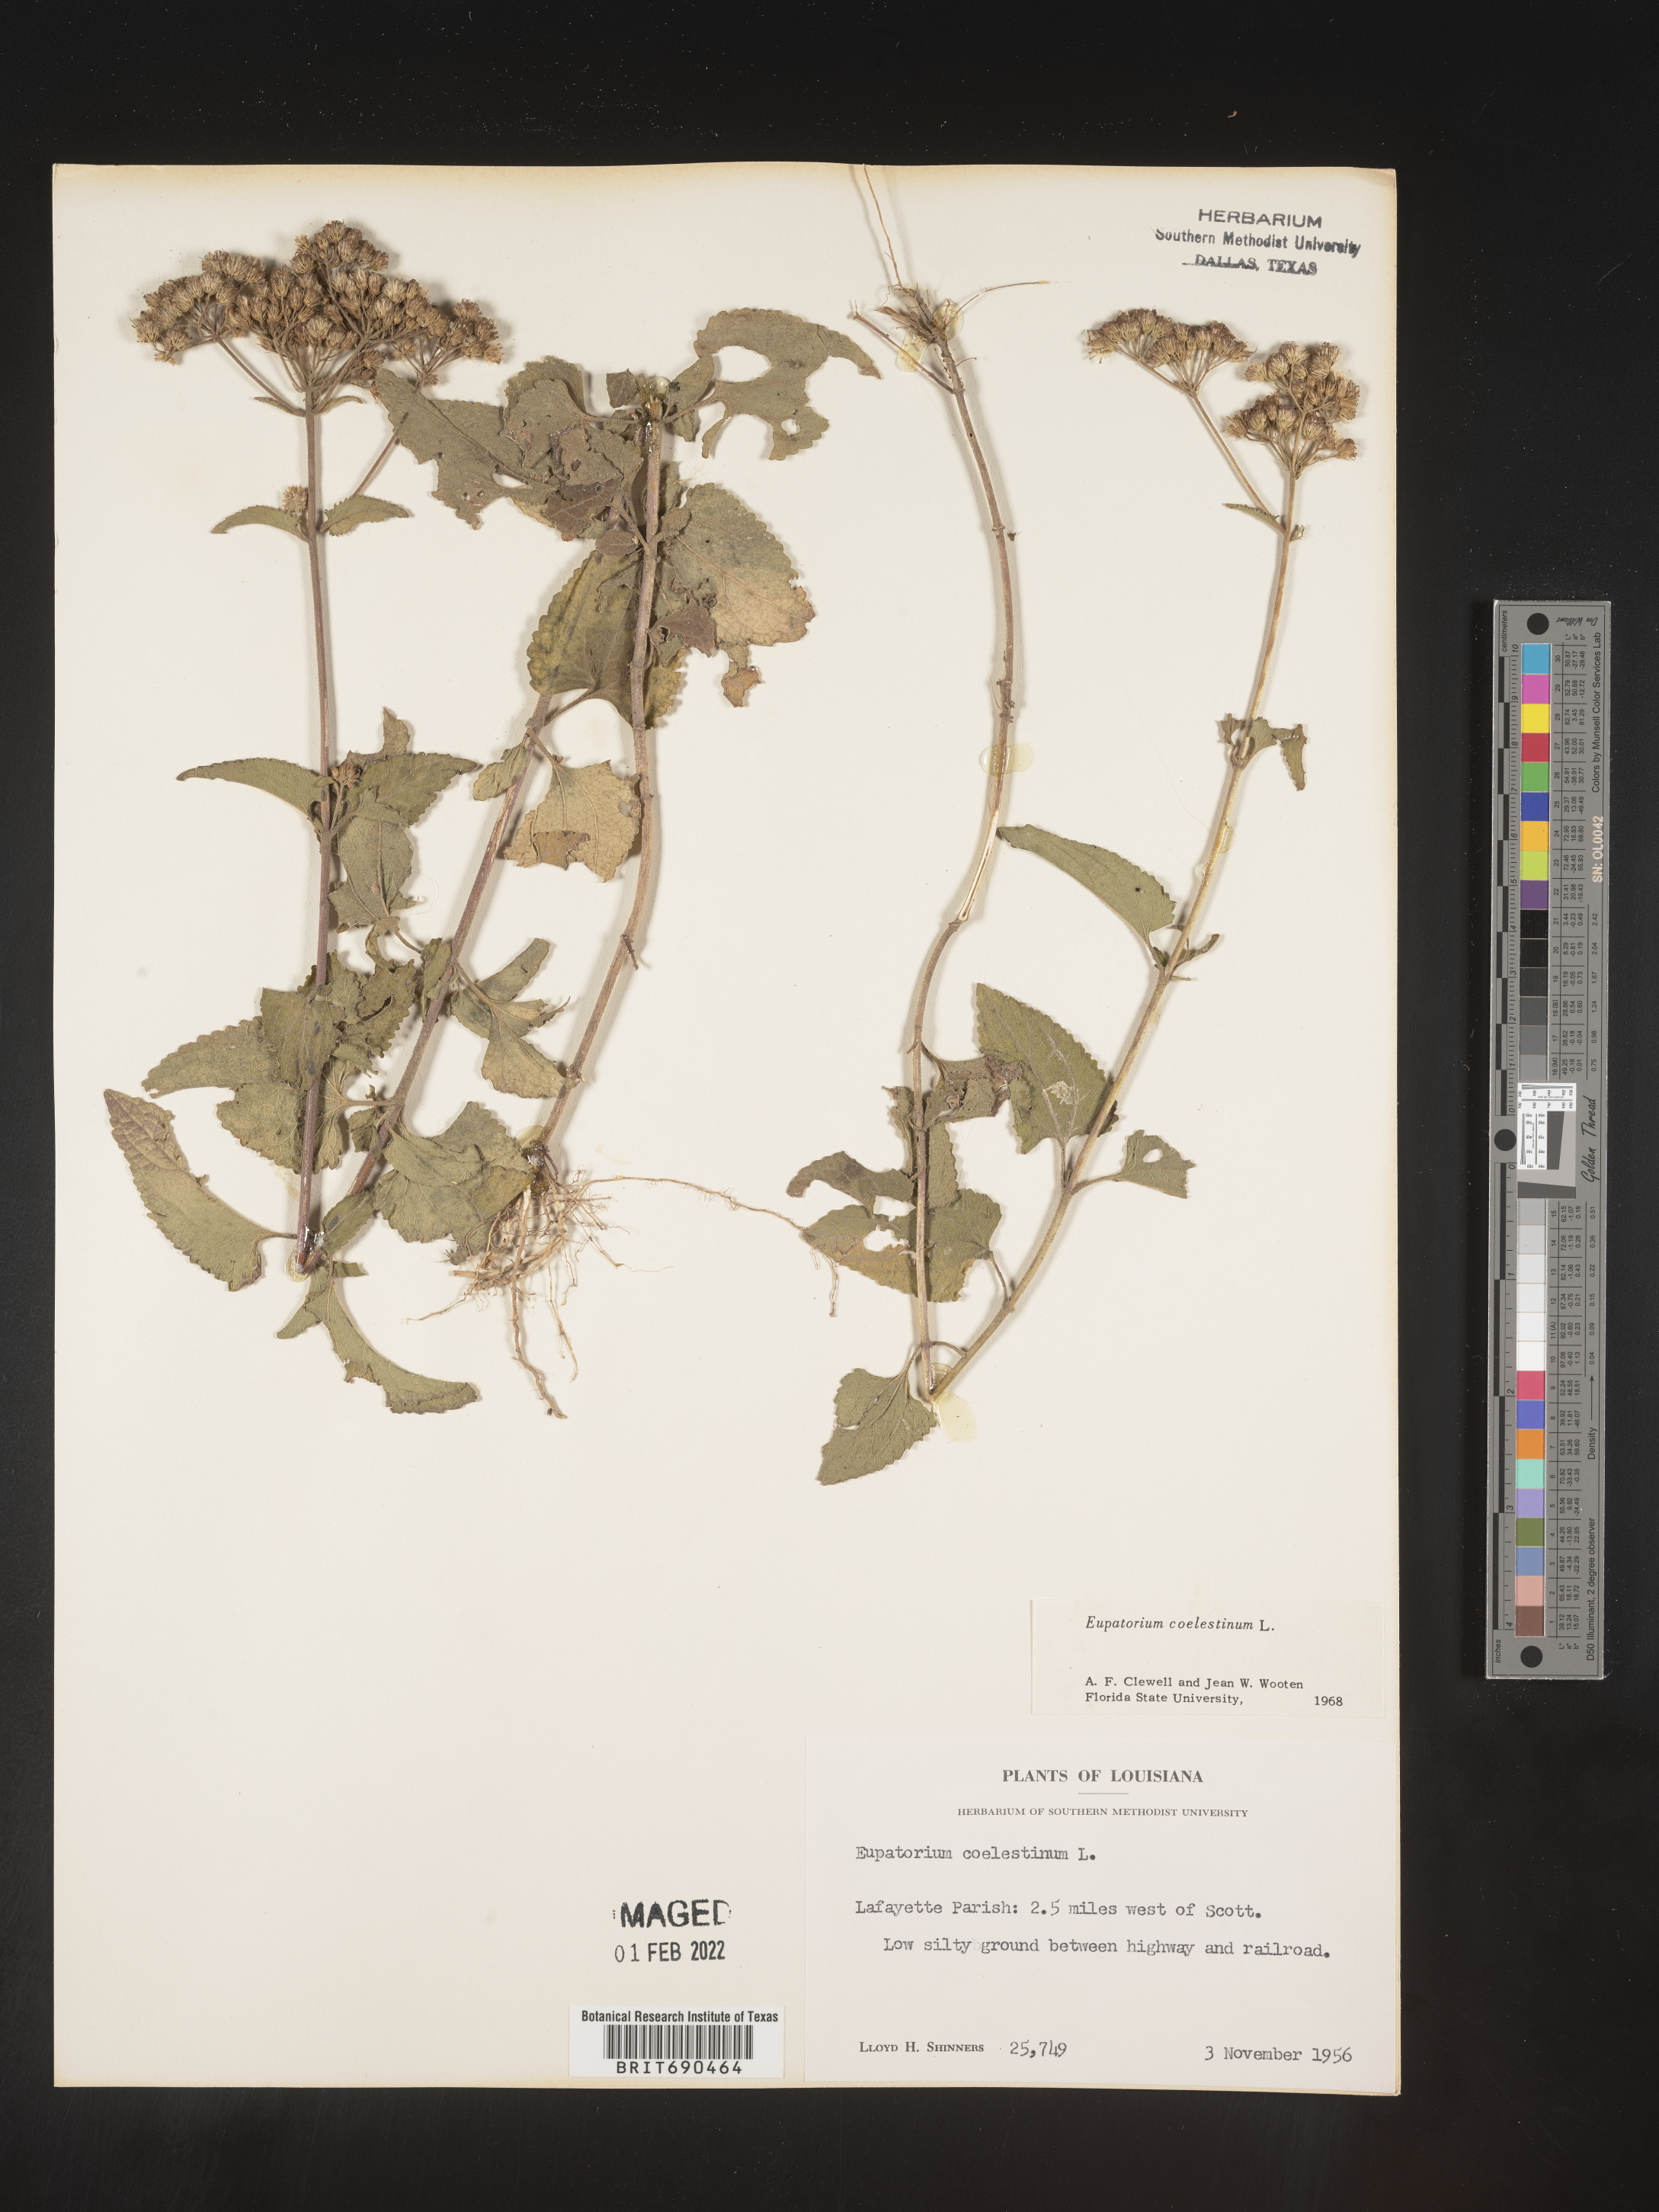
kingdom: Plantae
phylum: Tracheophyta
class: Magnoliopsida
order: Asterales
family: Asteraceae
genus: Conoclinium
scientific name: Conoclinium coelestinum
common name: Blue mistflower
